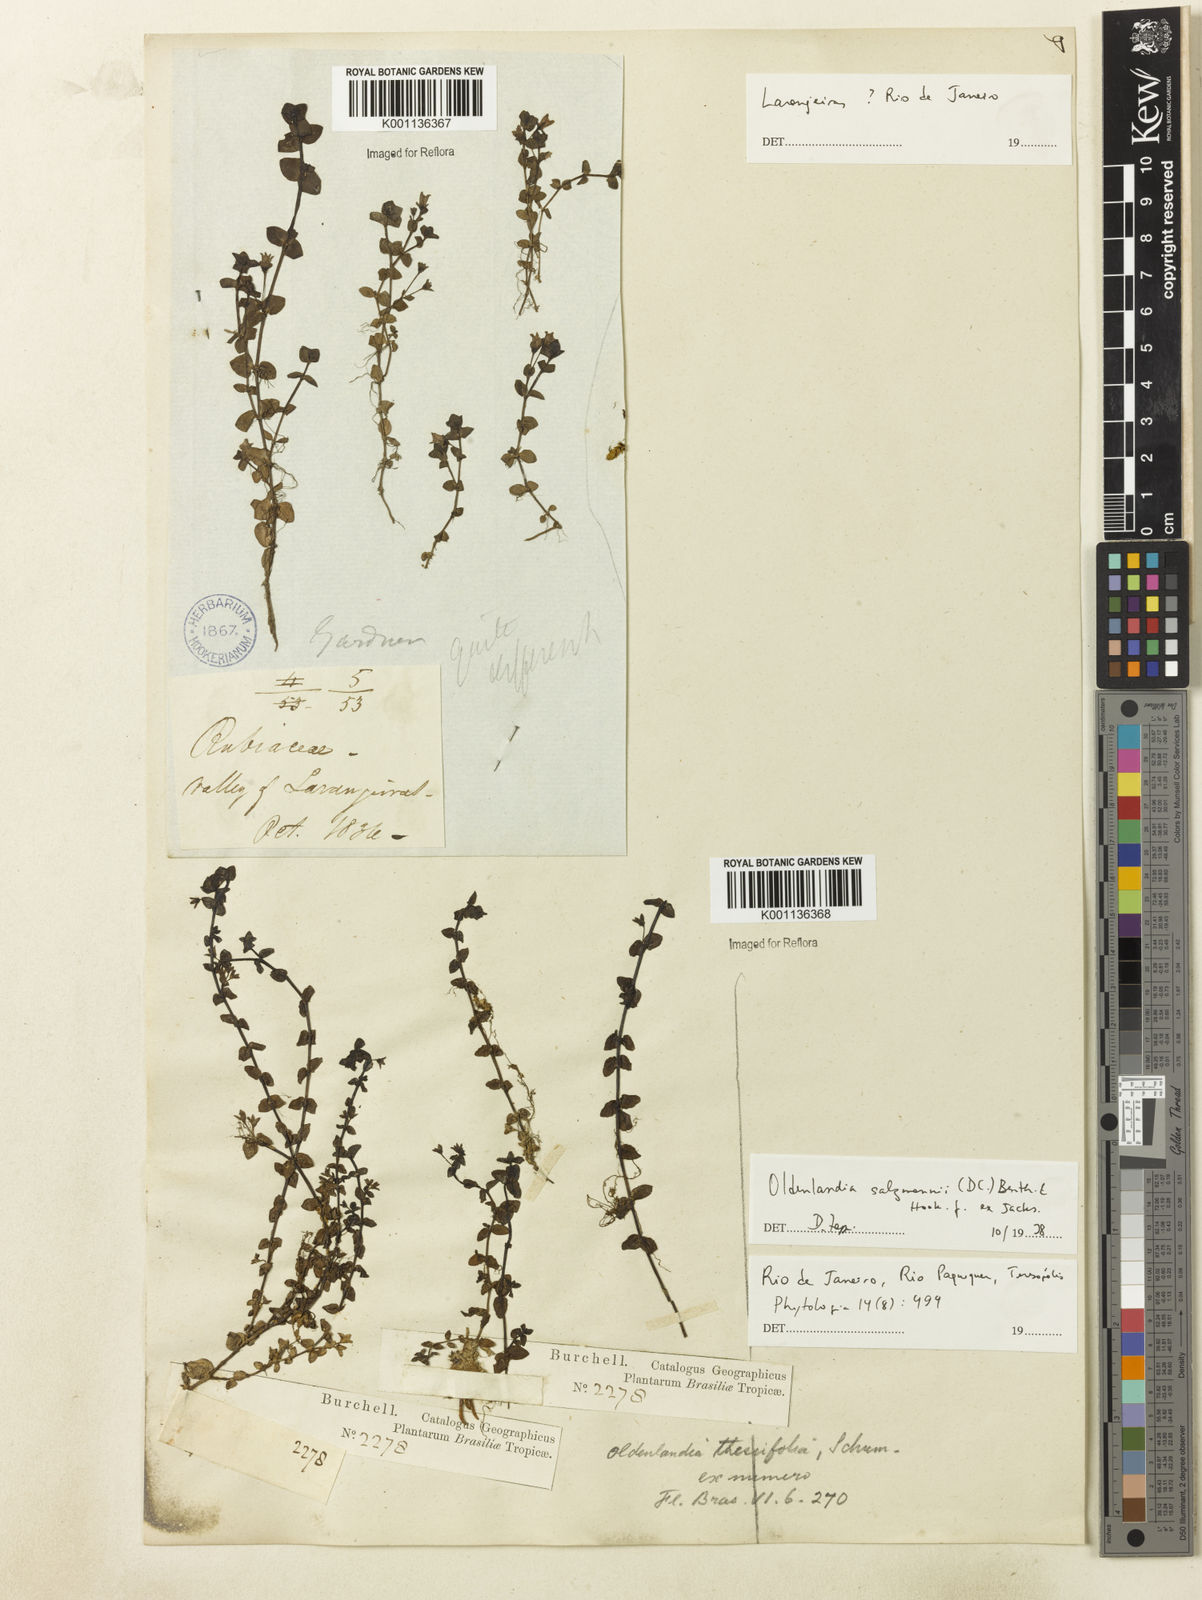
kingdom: Plantae
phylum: Tracheophyta
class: Magnoliopsida
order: Gentianales
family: Rubiaceae
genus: Oldenlandia
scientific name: Oldenlandia salzmannii
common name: Salzmann's mille graines
